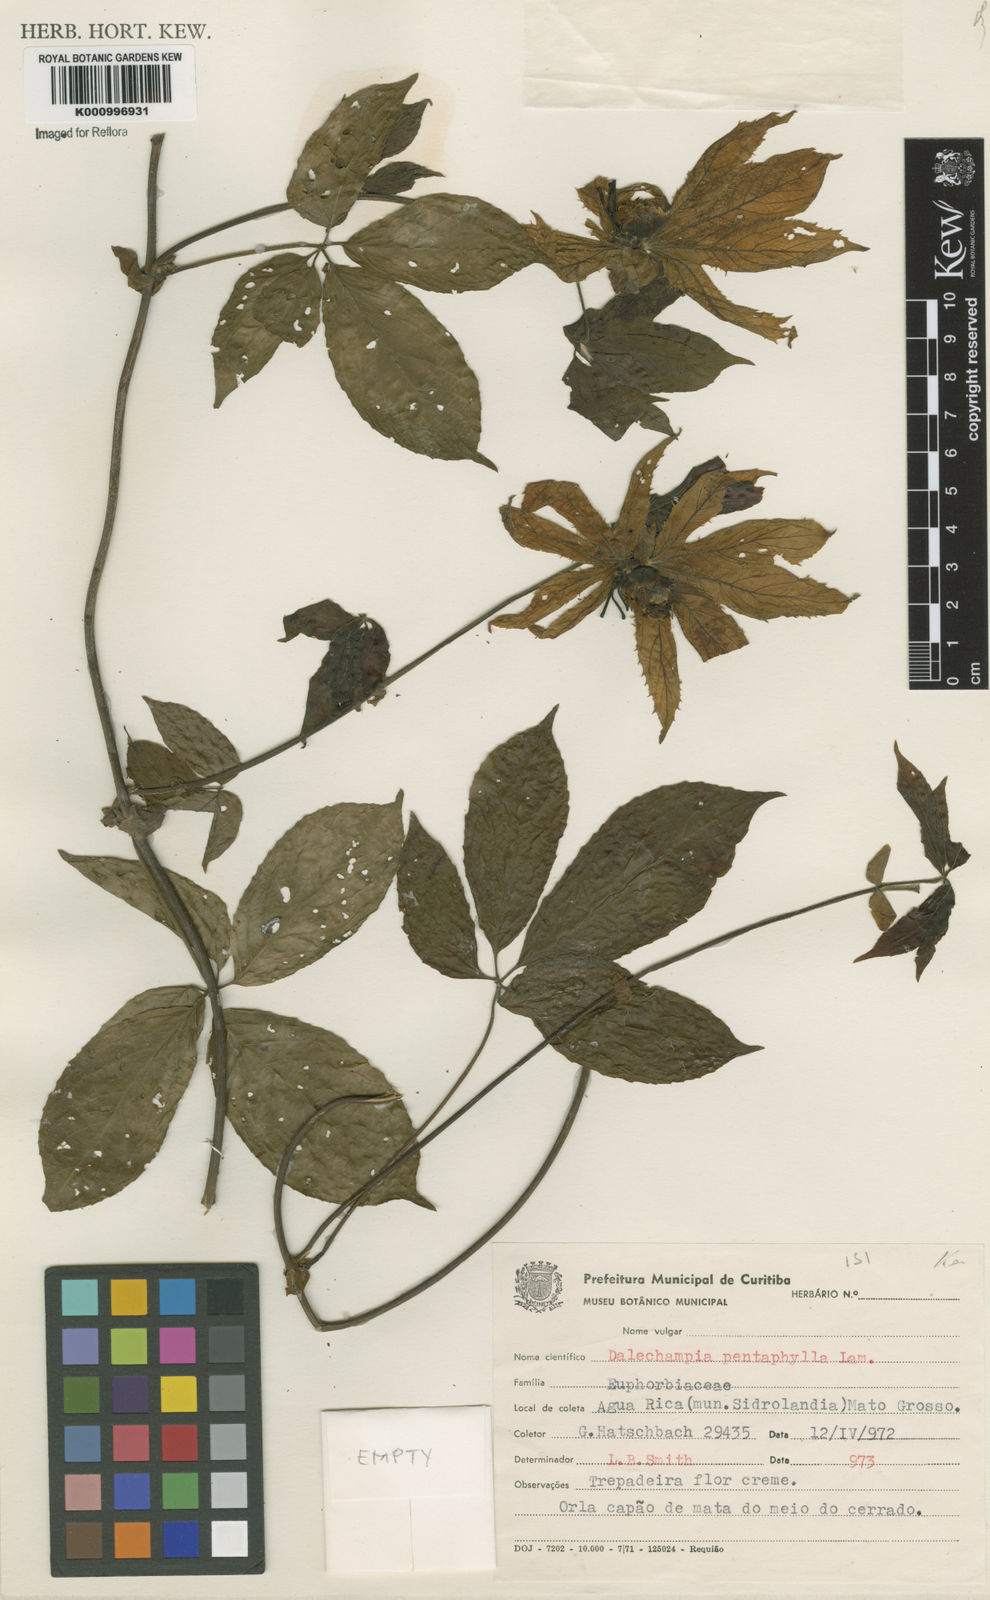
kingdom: Plantae
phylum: Tracheophyta
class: Magnoliopsida
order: Malpighiales
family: Euphorbiaceae
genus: Dalechampia
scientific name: Dalechampia pentaphylla
